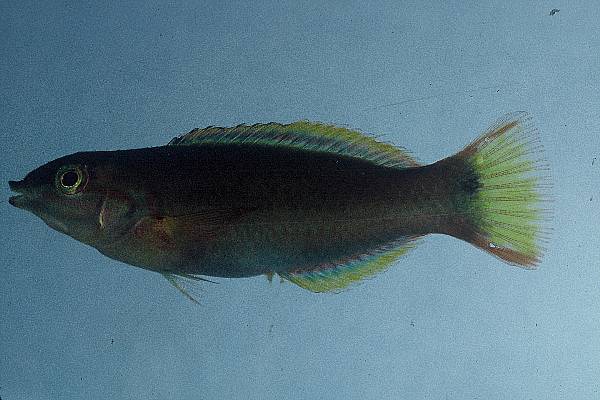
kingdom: Animalia
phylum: Chordata
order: Perciformes
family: Labridae
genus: Thalassoma
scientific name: Thalassoma lutescens
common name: Green moon wrasse
